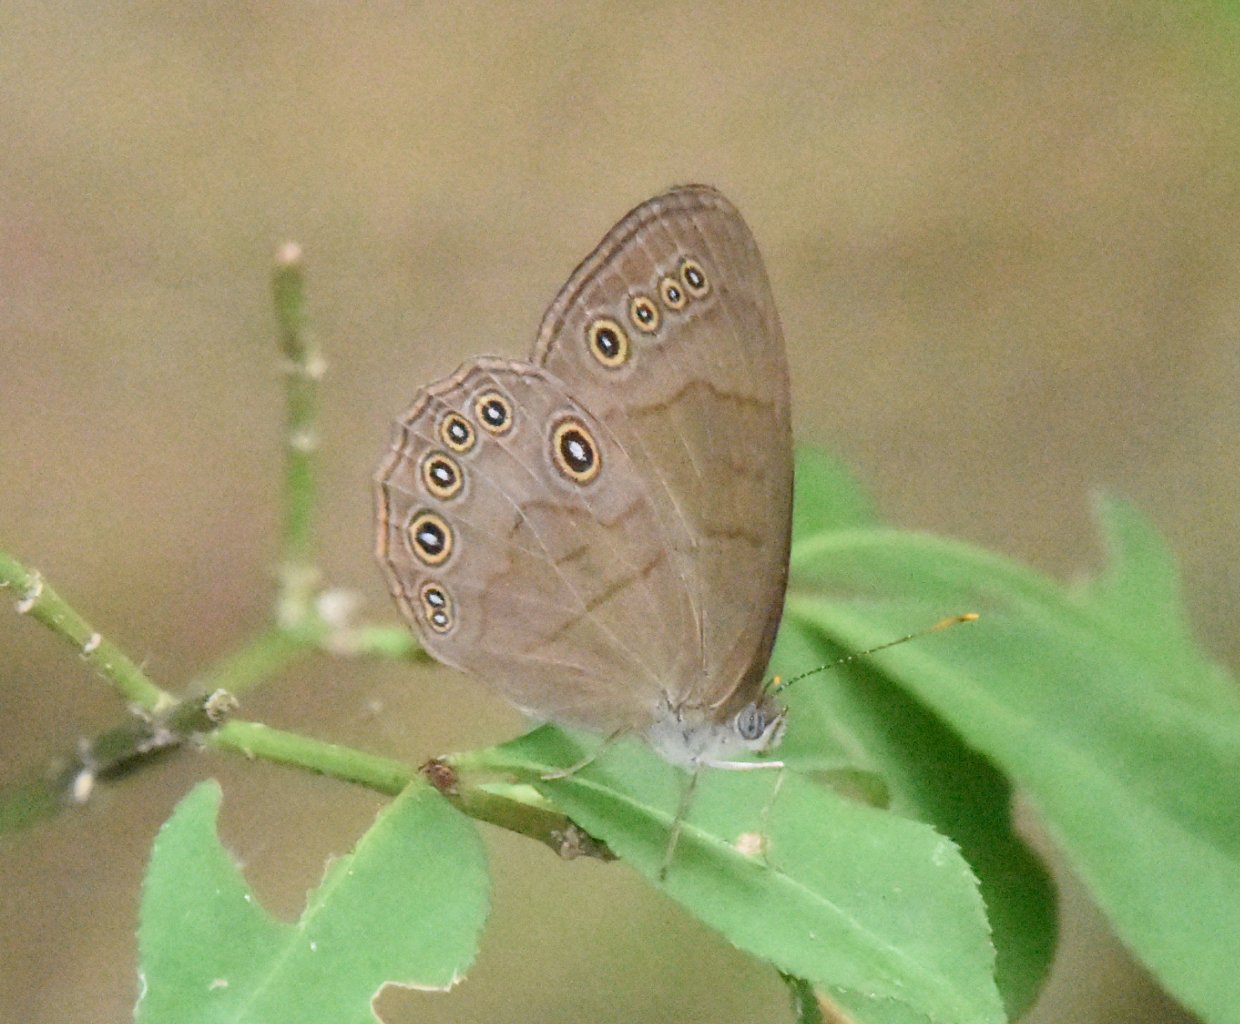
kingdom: Animalia
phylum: Arthropoda
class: Insecta
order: Lepidoptera
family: Nymphalidae
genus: Lethe
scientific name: Lethe eurydice
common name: Appalachian Eyed Brown
